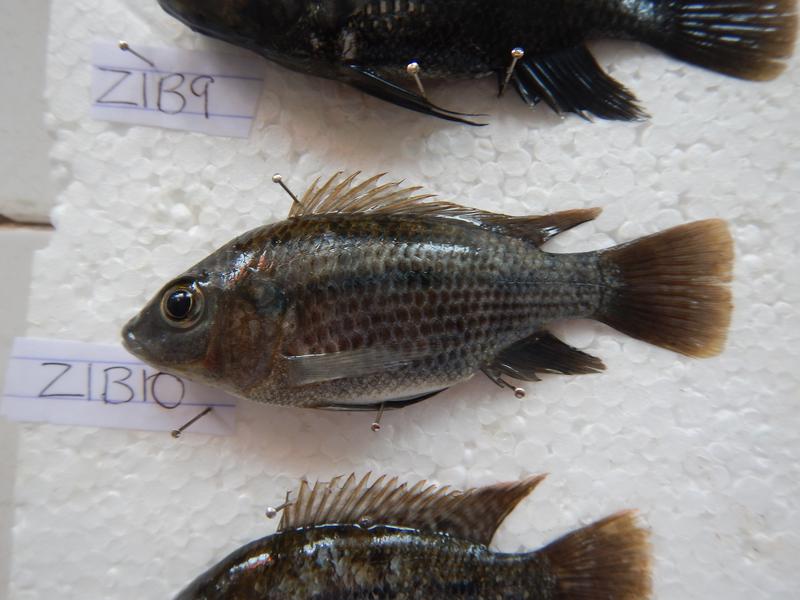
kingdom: Animalia
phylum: Chordata
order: Perciformes
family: Cichlidae
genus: Oreochromis
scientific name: Oreochromis urolepis
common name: Wami tilapia
